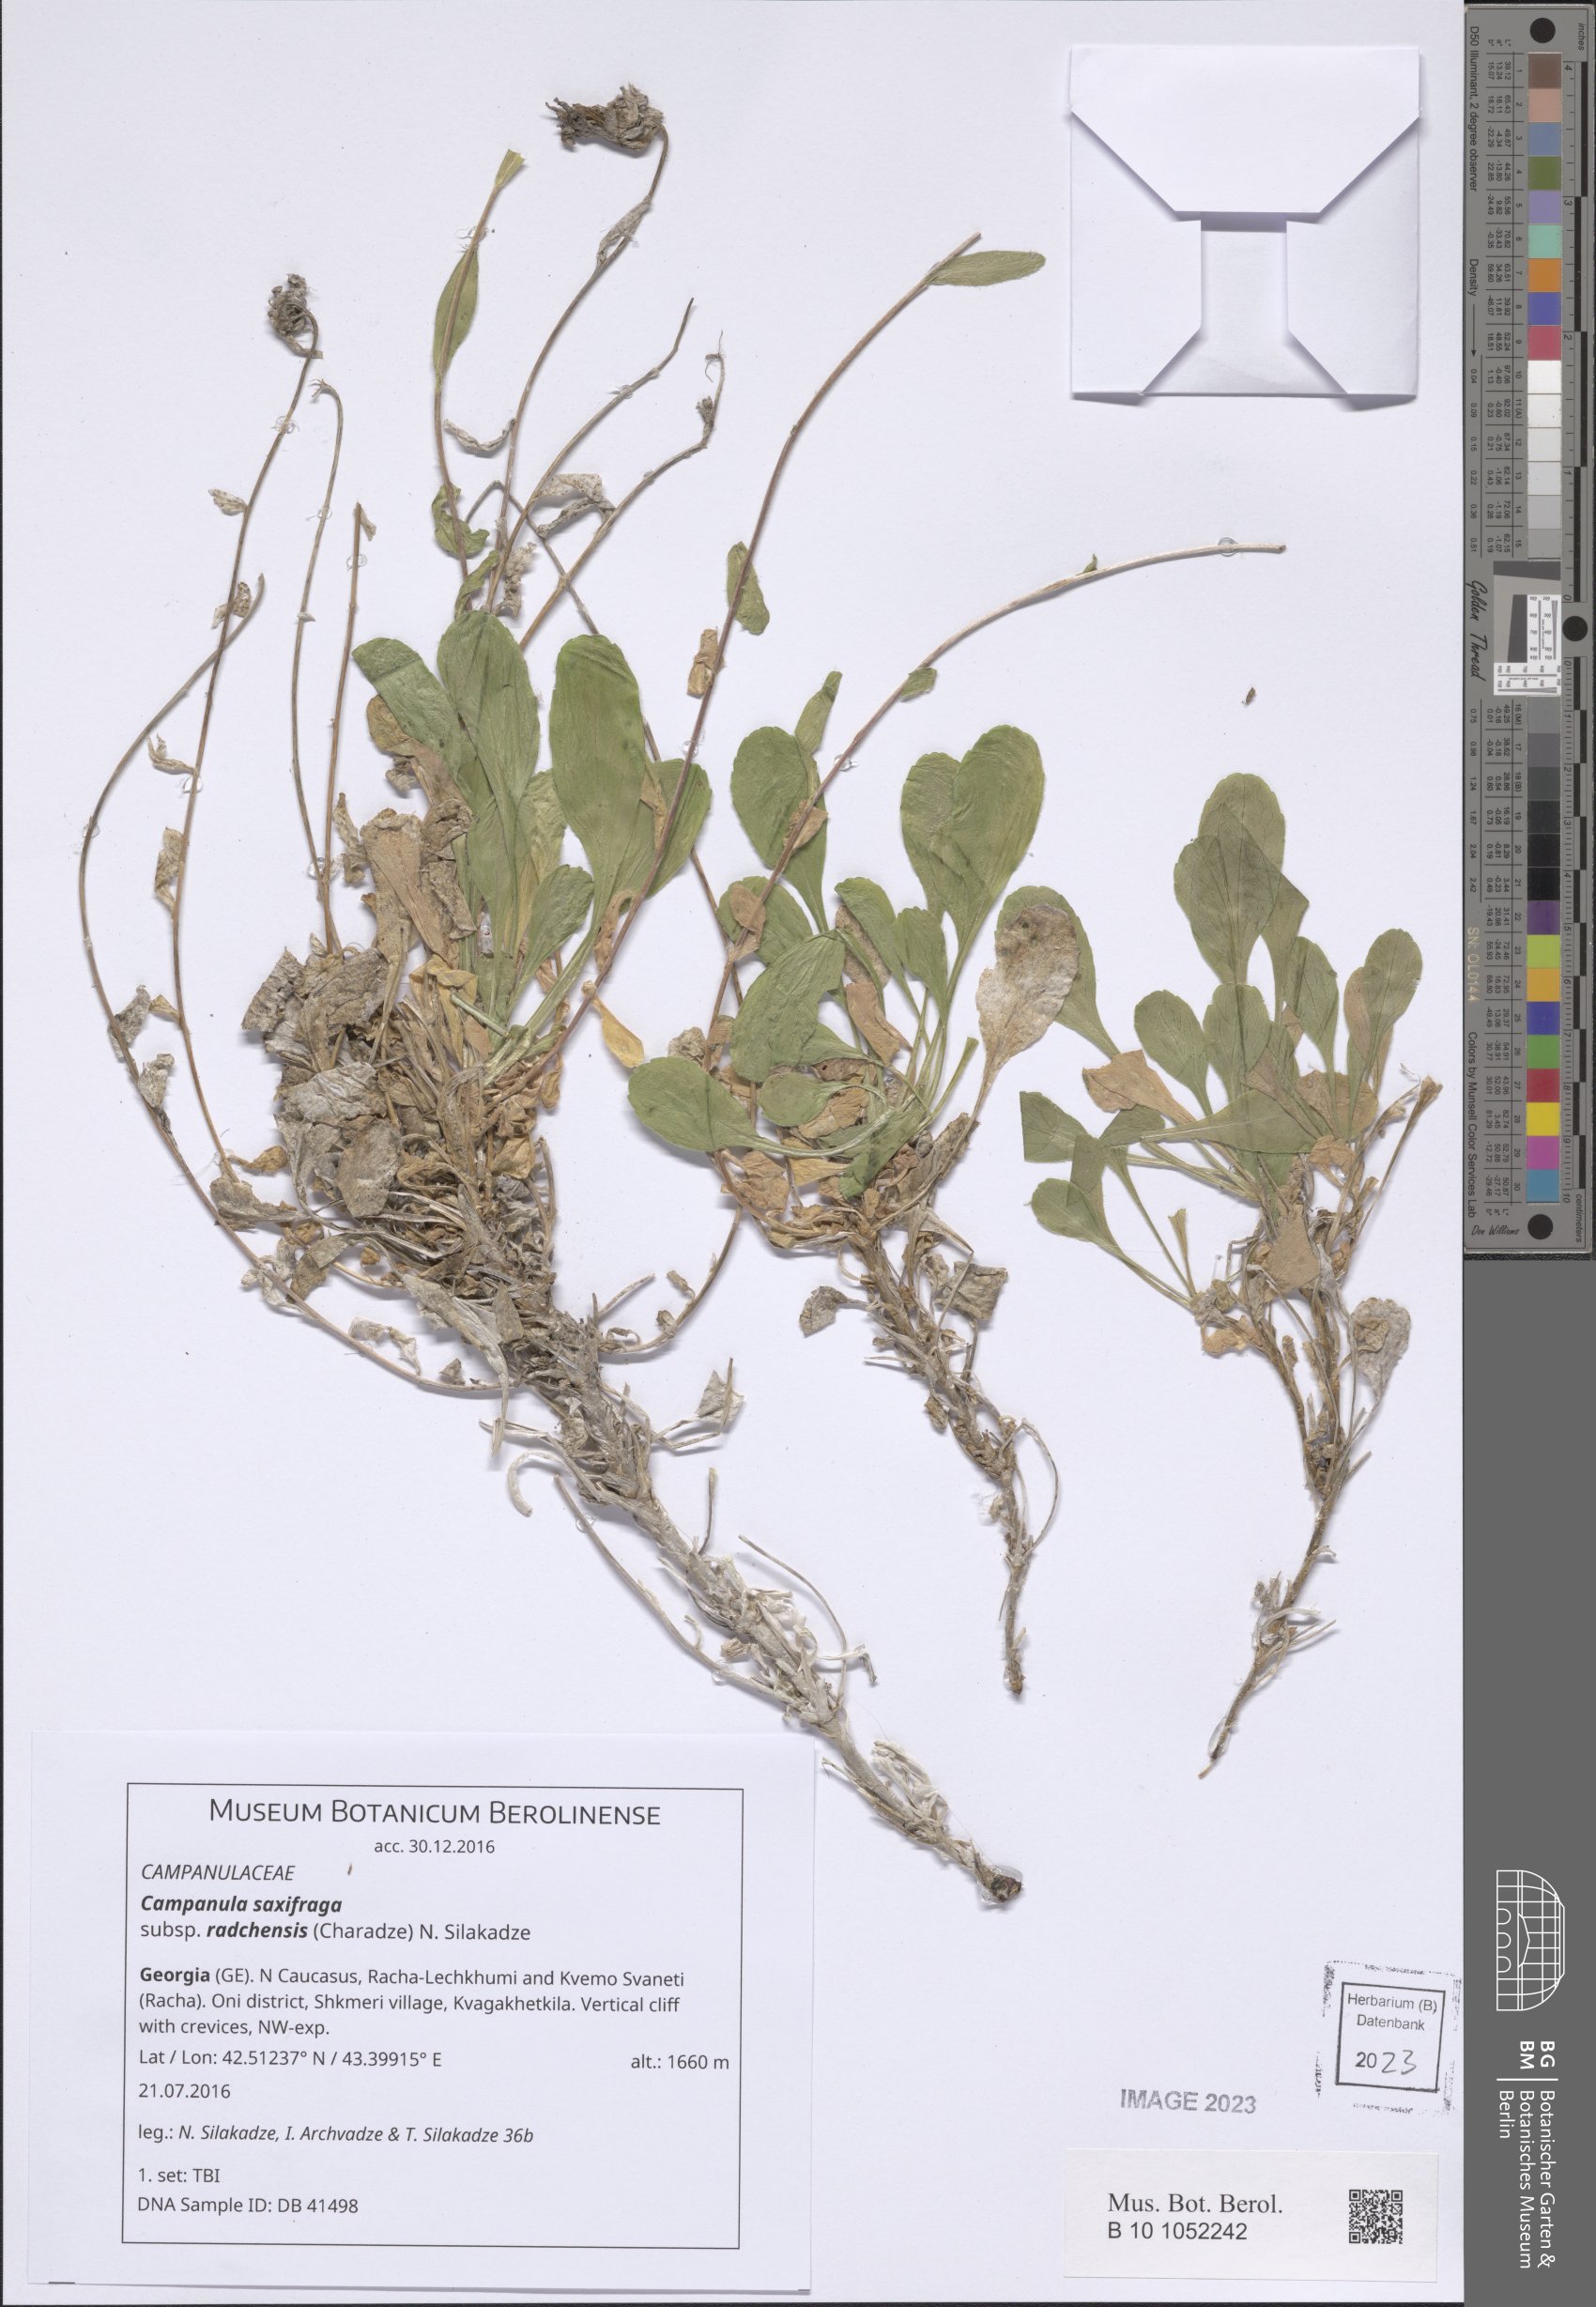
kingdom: Plantae
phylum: Tracheophyta
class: Magnoliopsida
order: Asterales
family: Campanulaceae
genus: Campanula
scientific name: Campanula saxifraga
